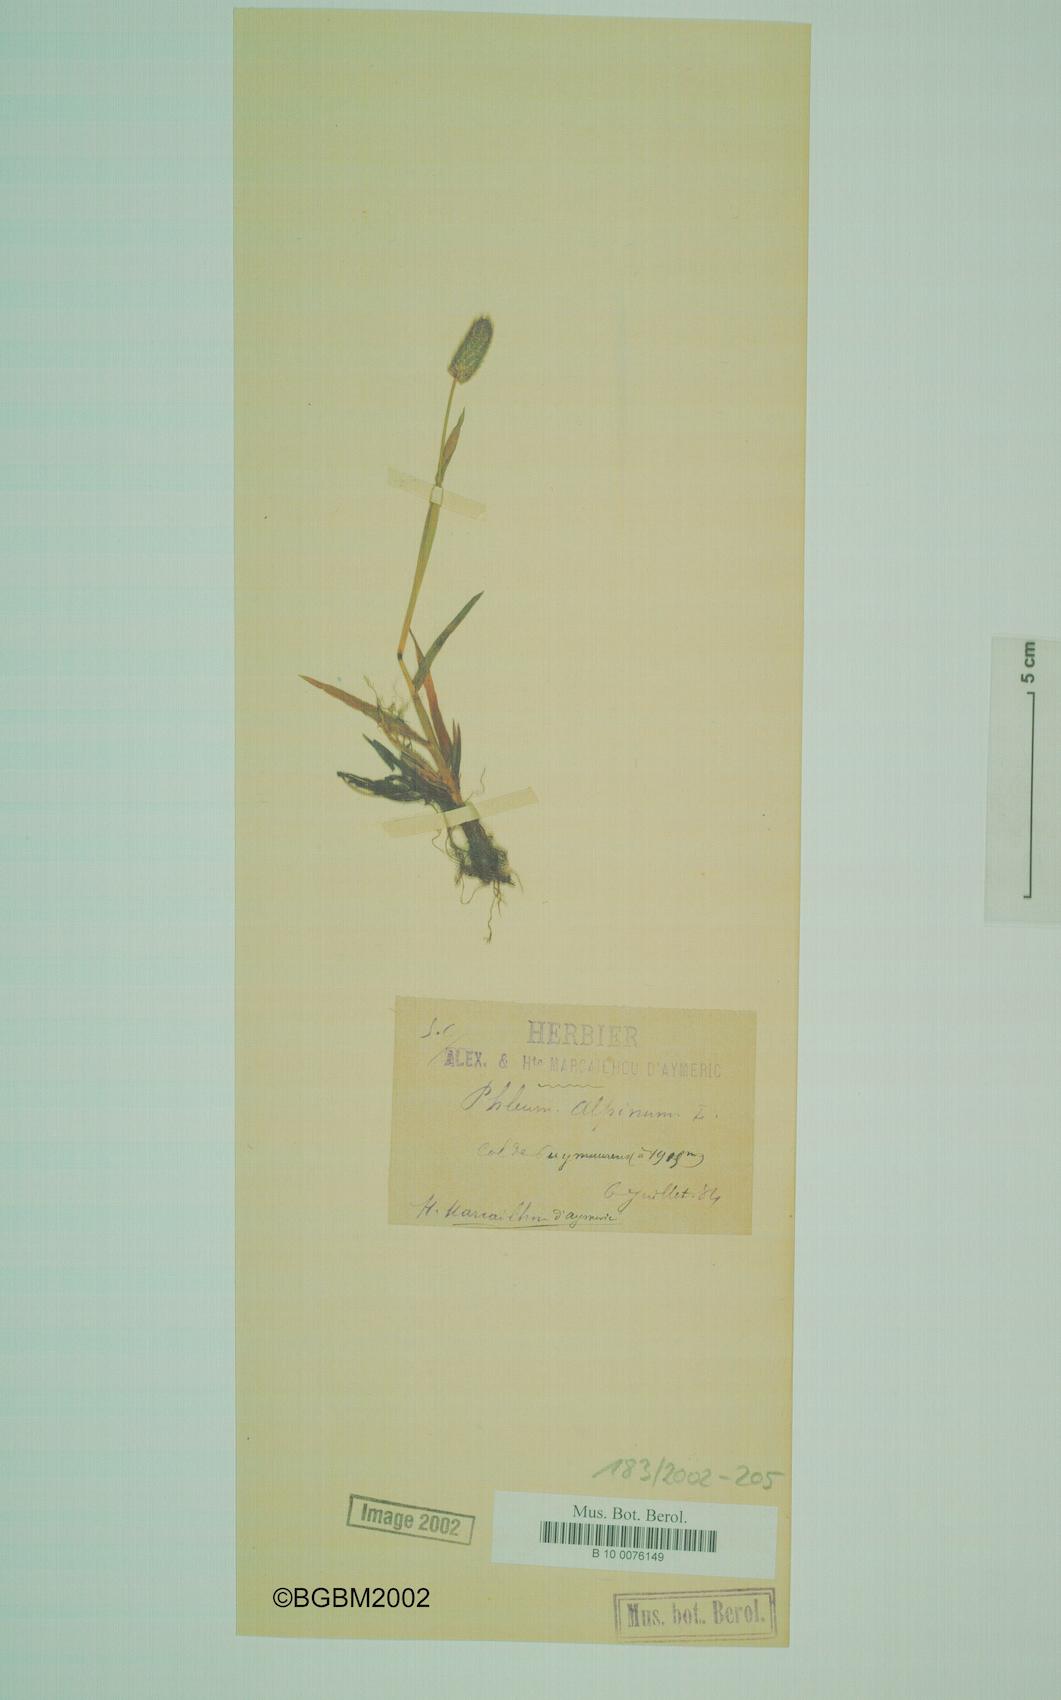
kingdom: Plantae
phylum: Tracheophyta
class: Liliopsida
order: Poales
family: Poaceae
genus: Phleum
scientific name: Phleum alpinum
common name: Alpine cat's-tail
